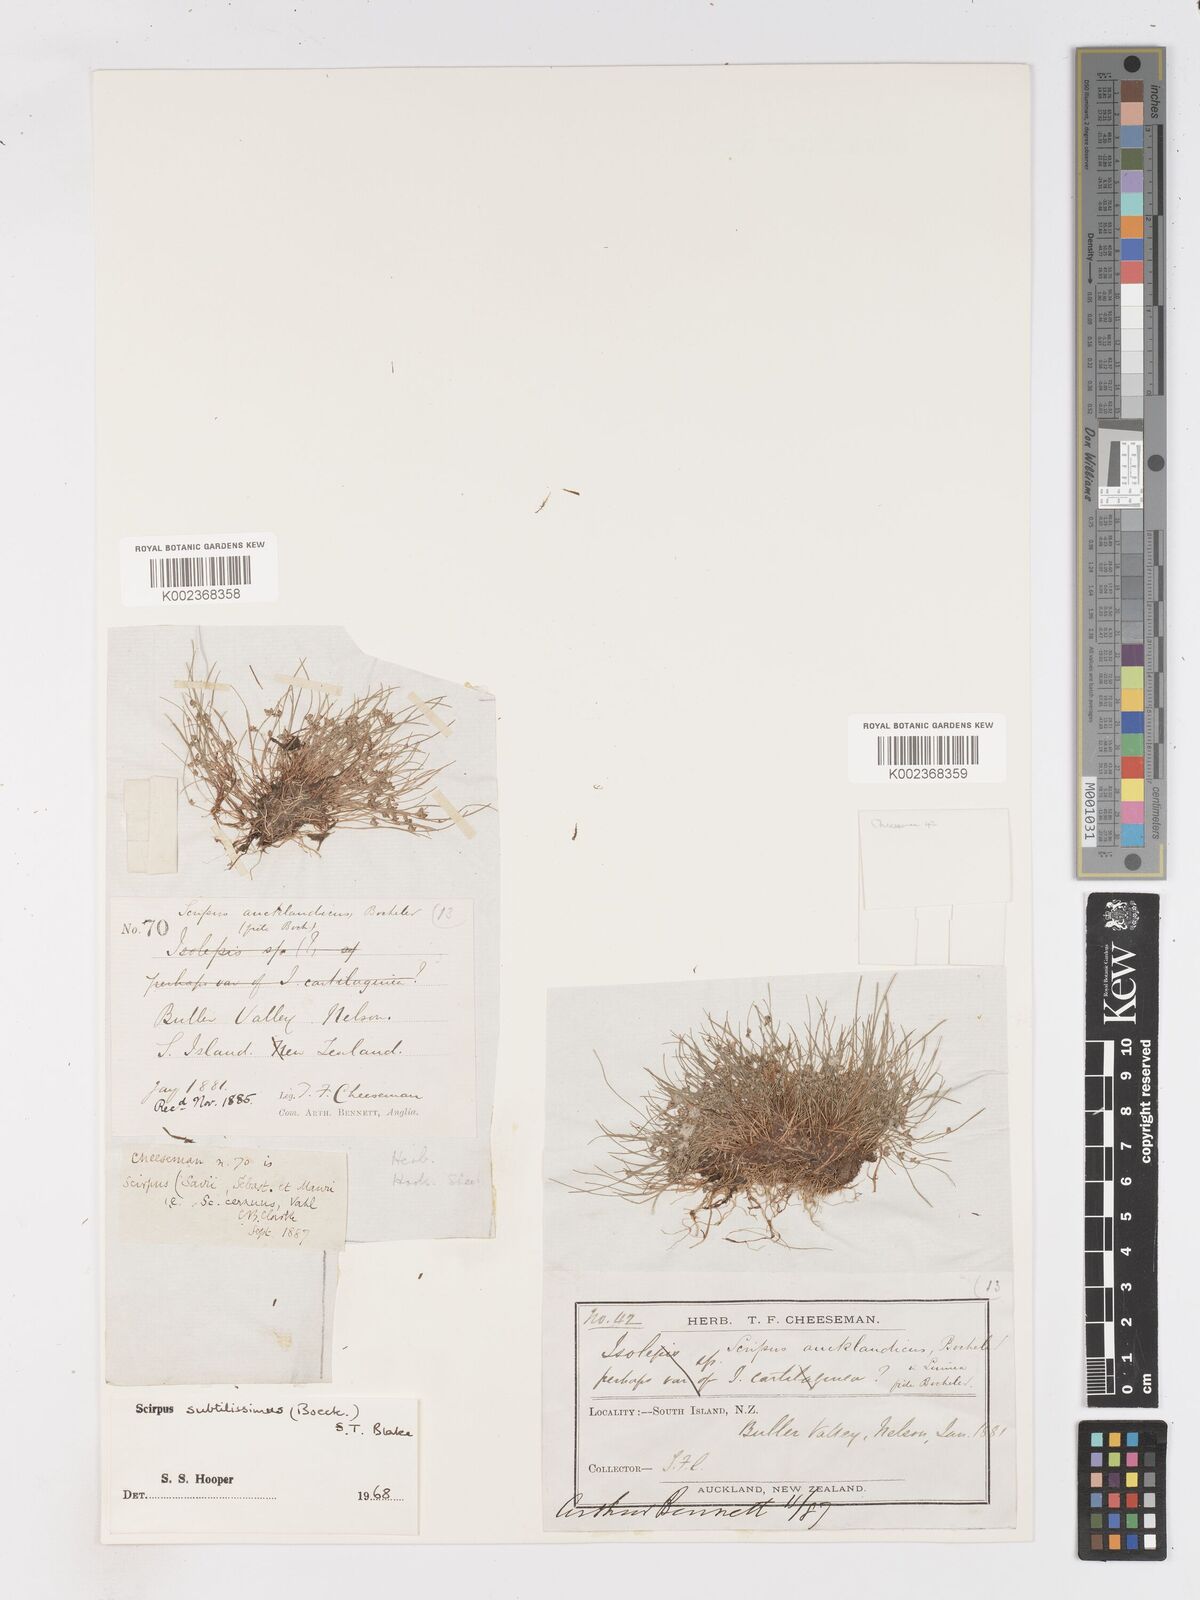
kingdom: Plantae
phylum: Tracheophyta
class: Liliopsida
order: Poales
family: Cyperaceae
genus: Isolepis
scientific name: Isolepis subtilissima
